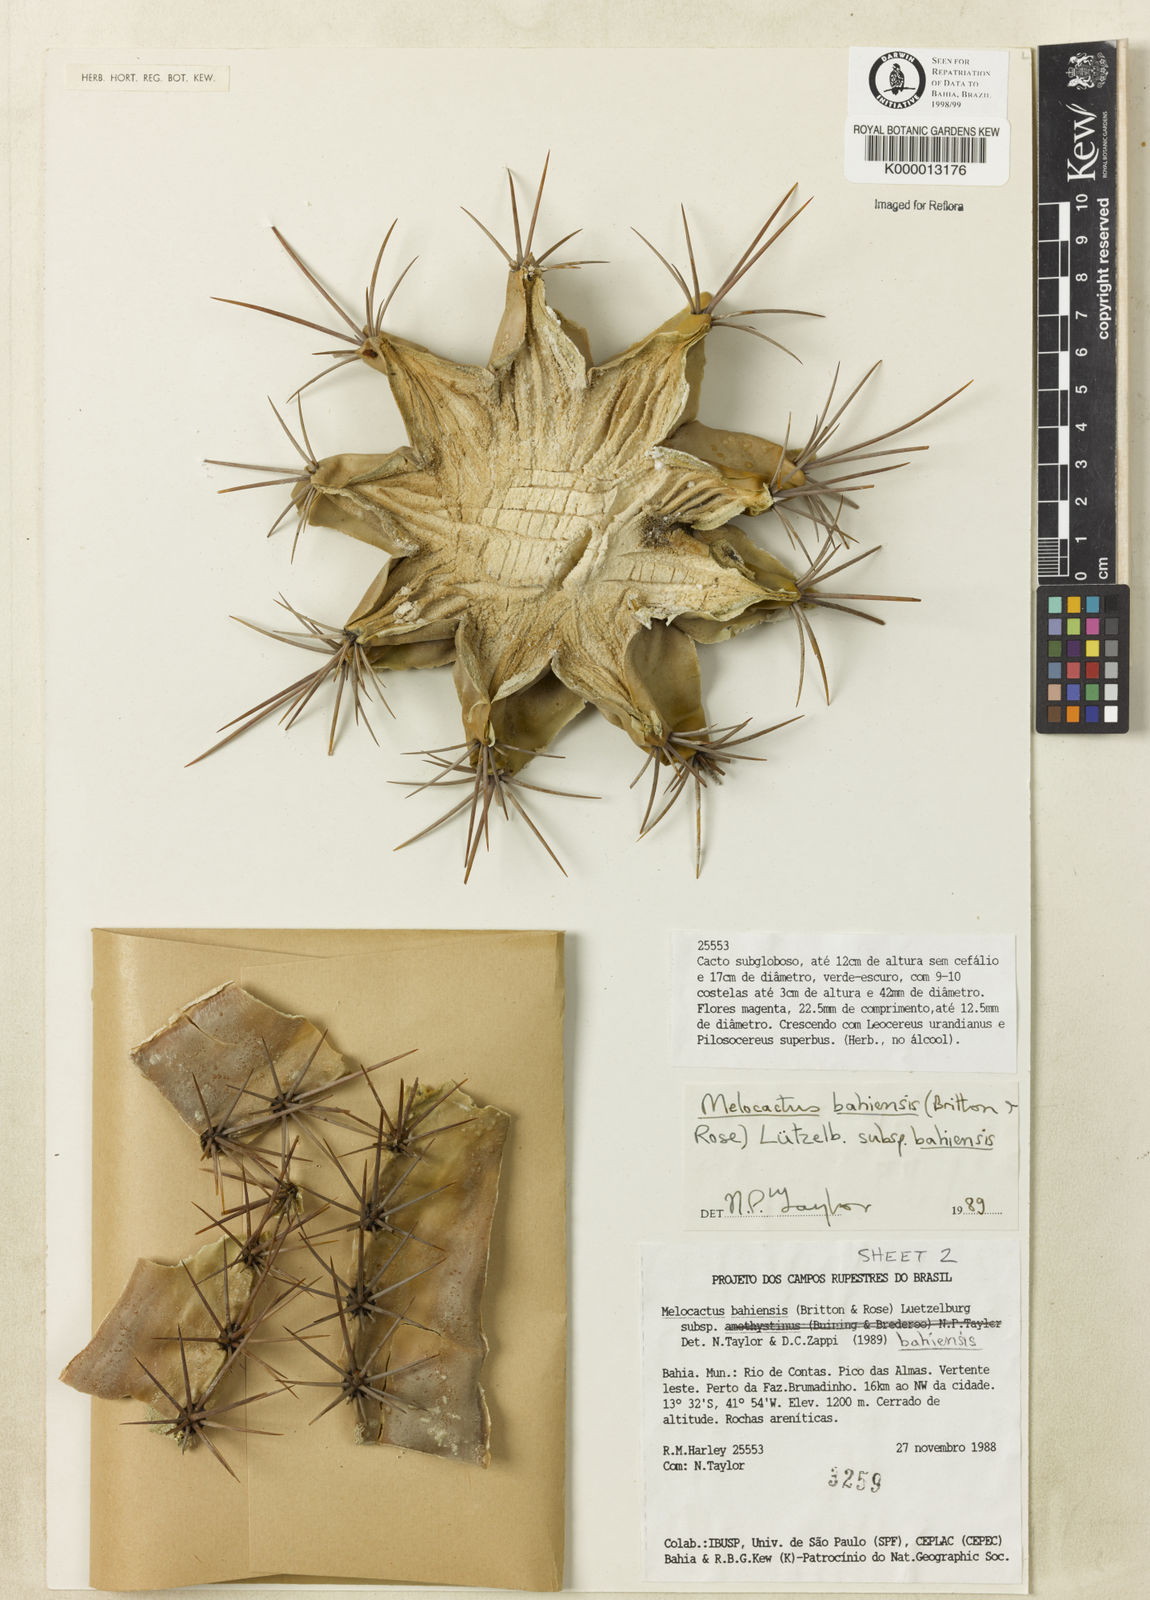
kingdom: Plantae
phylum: Tracheophyta
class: Magnoliopsida
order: Caryophyllales
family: Cactaceae
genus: Melocactus
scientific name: Melocactus bahiensis
